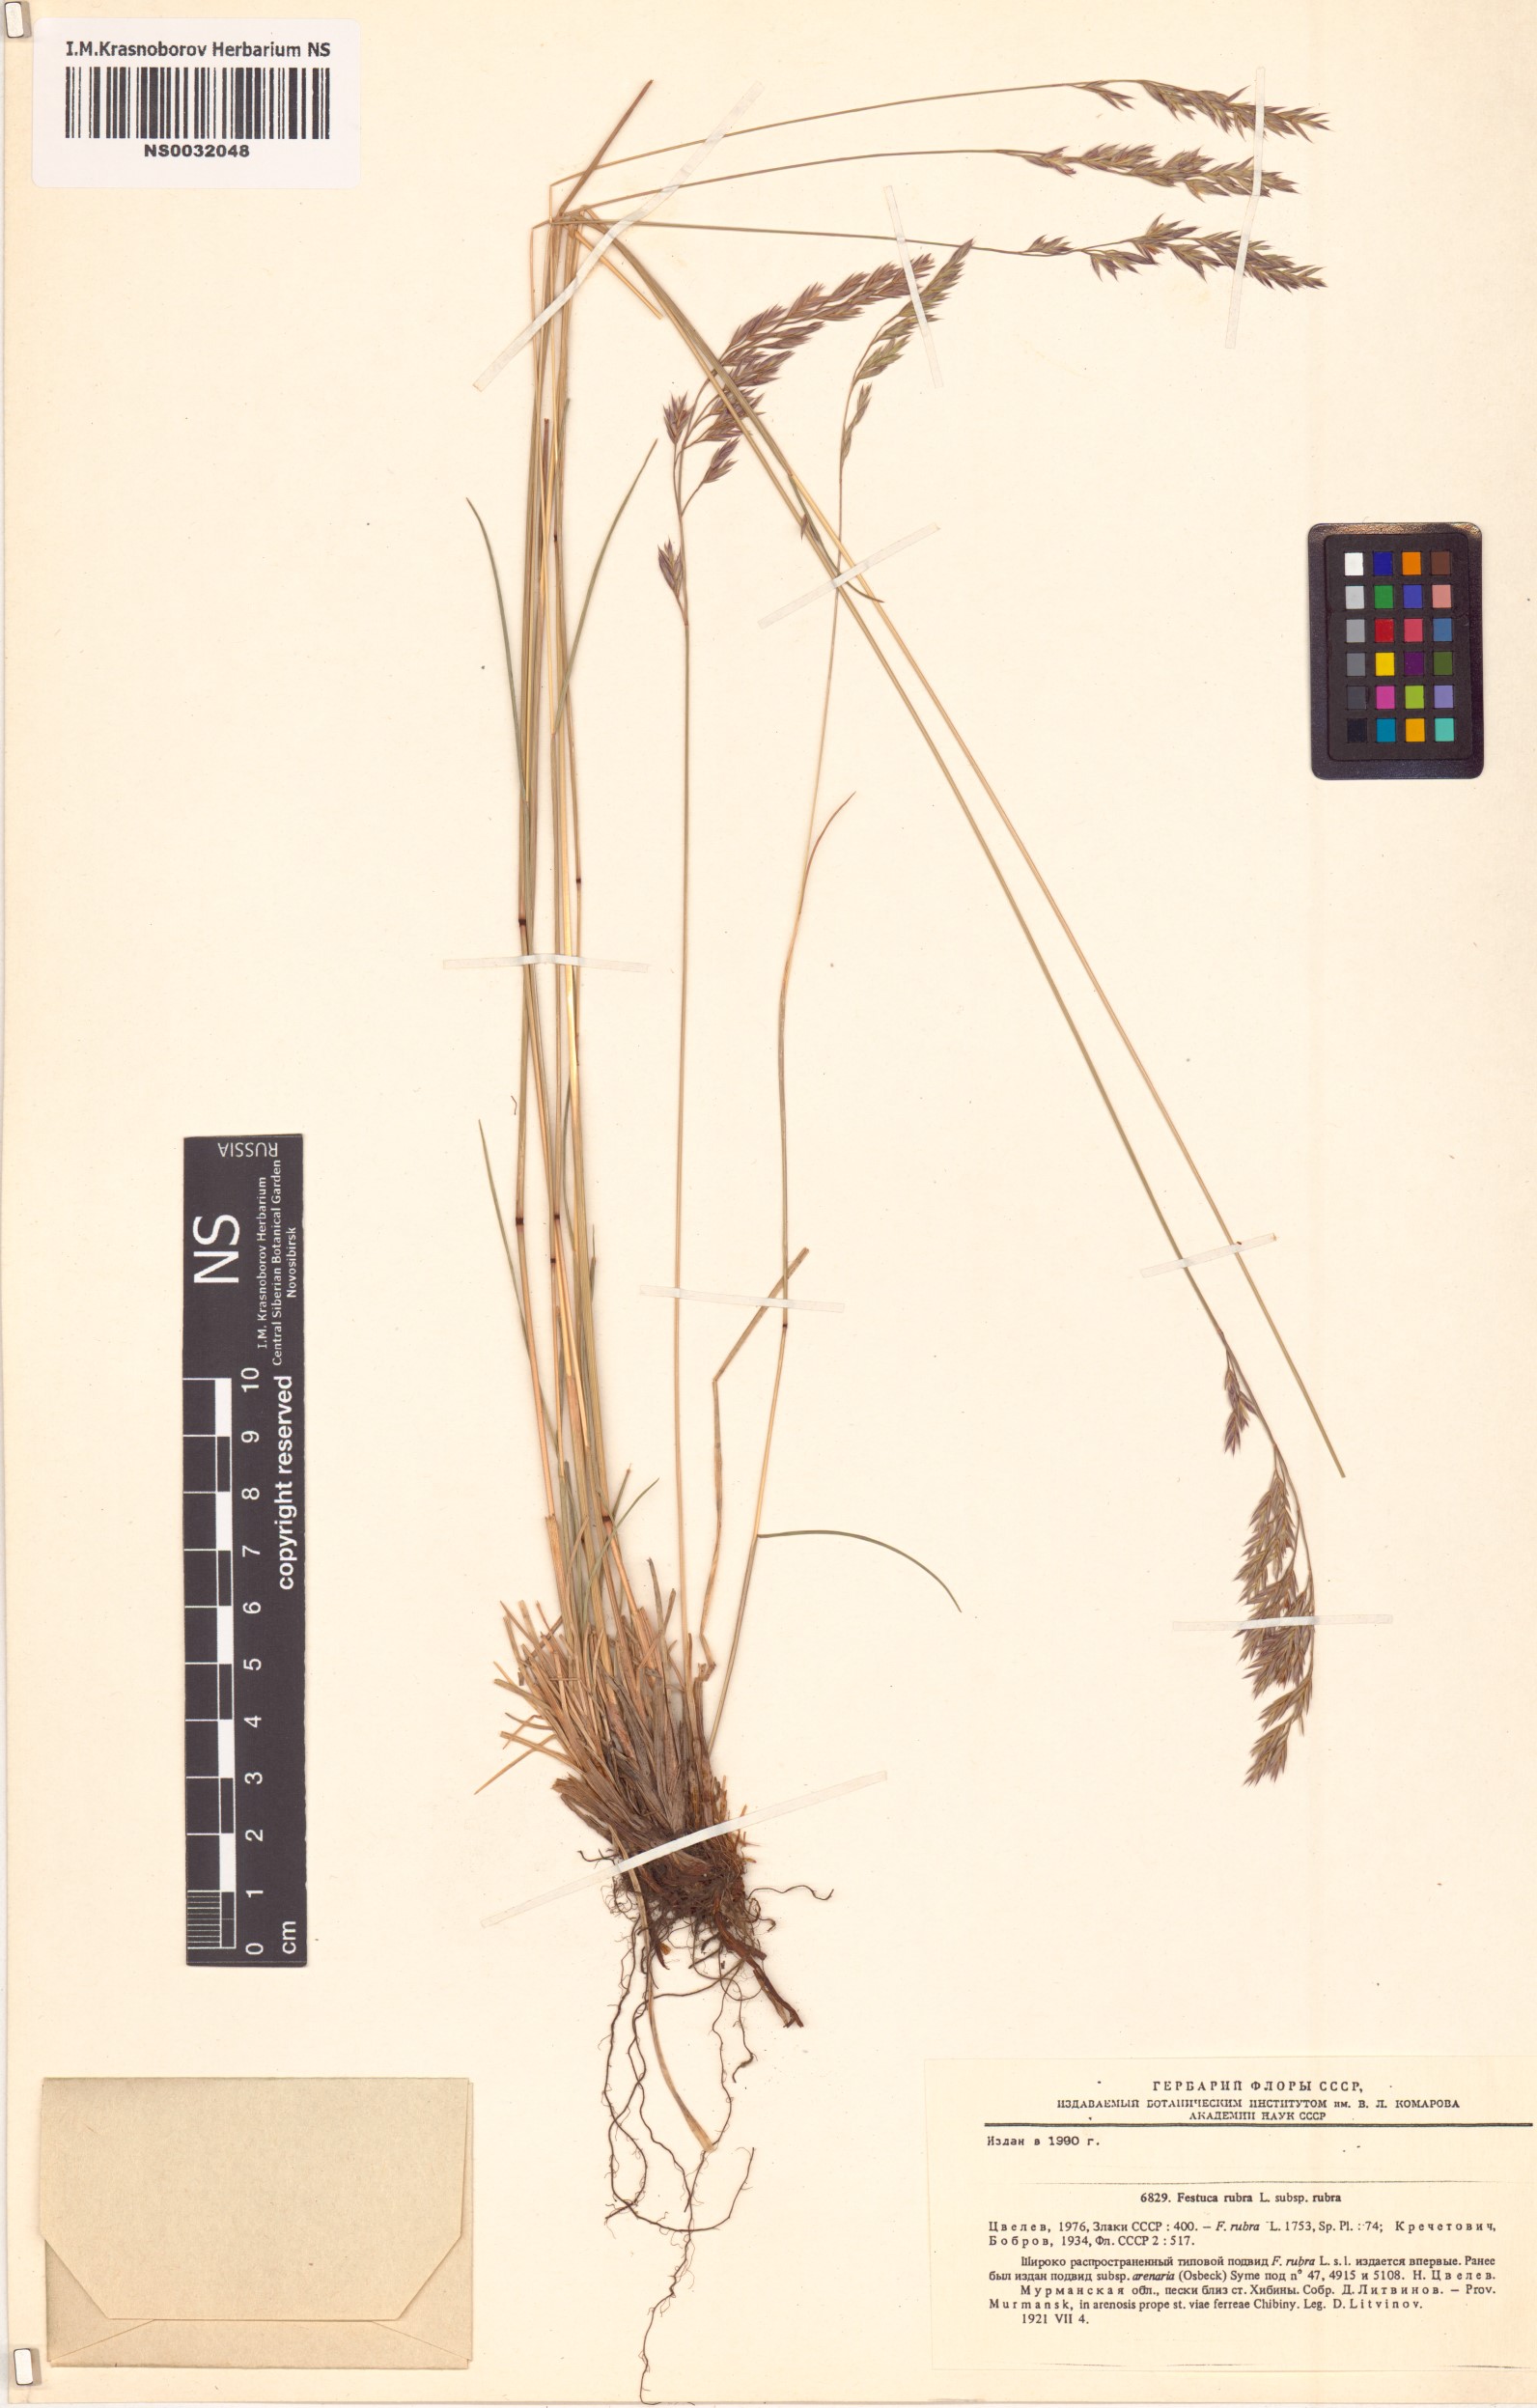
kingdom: Plantae
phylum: Tracheophyta
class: Liliopsida
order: Poales
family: Poaceae
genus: Festuca
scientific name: Festuca rubra
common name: Red fescue
